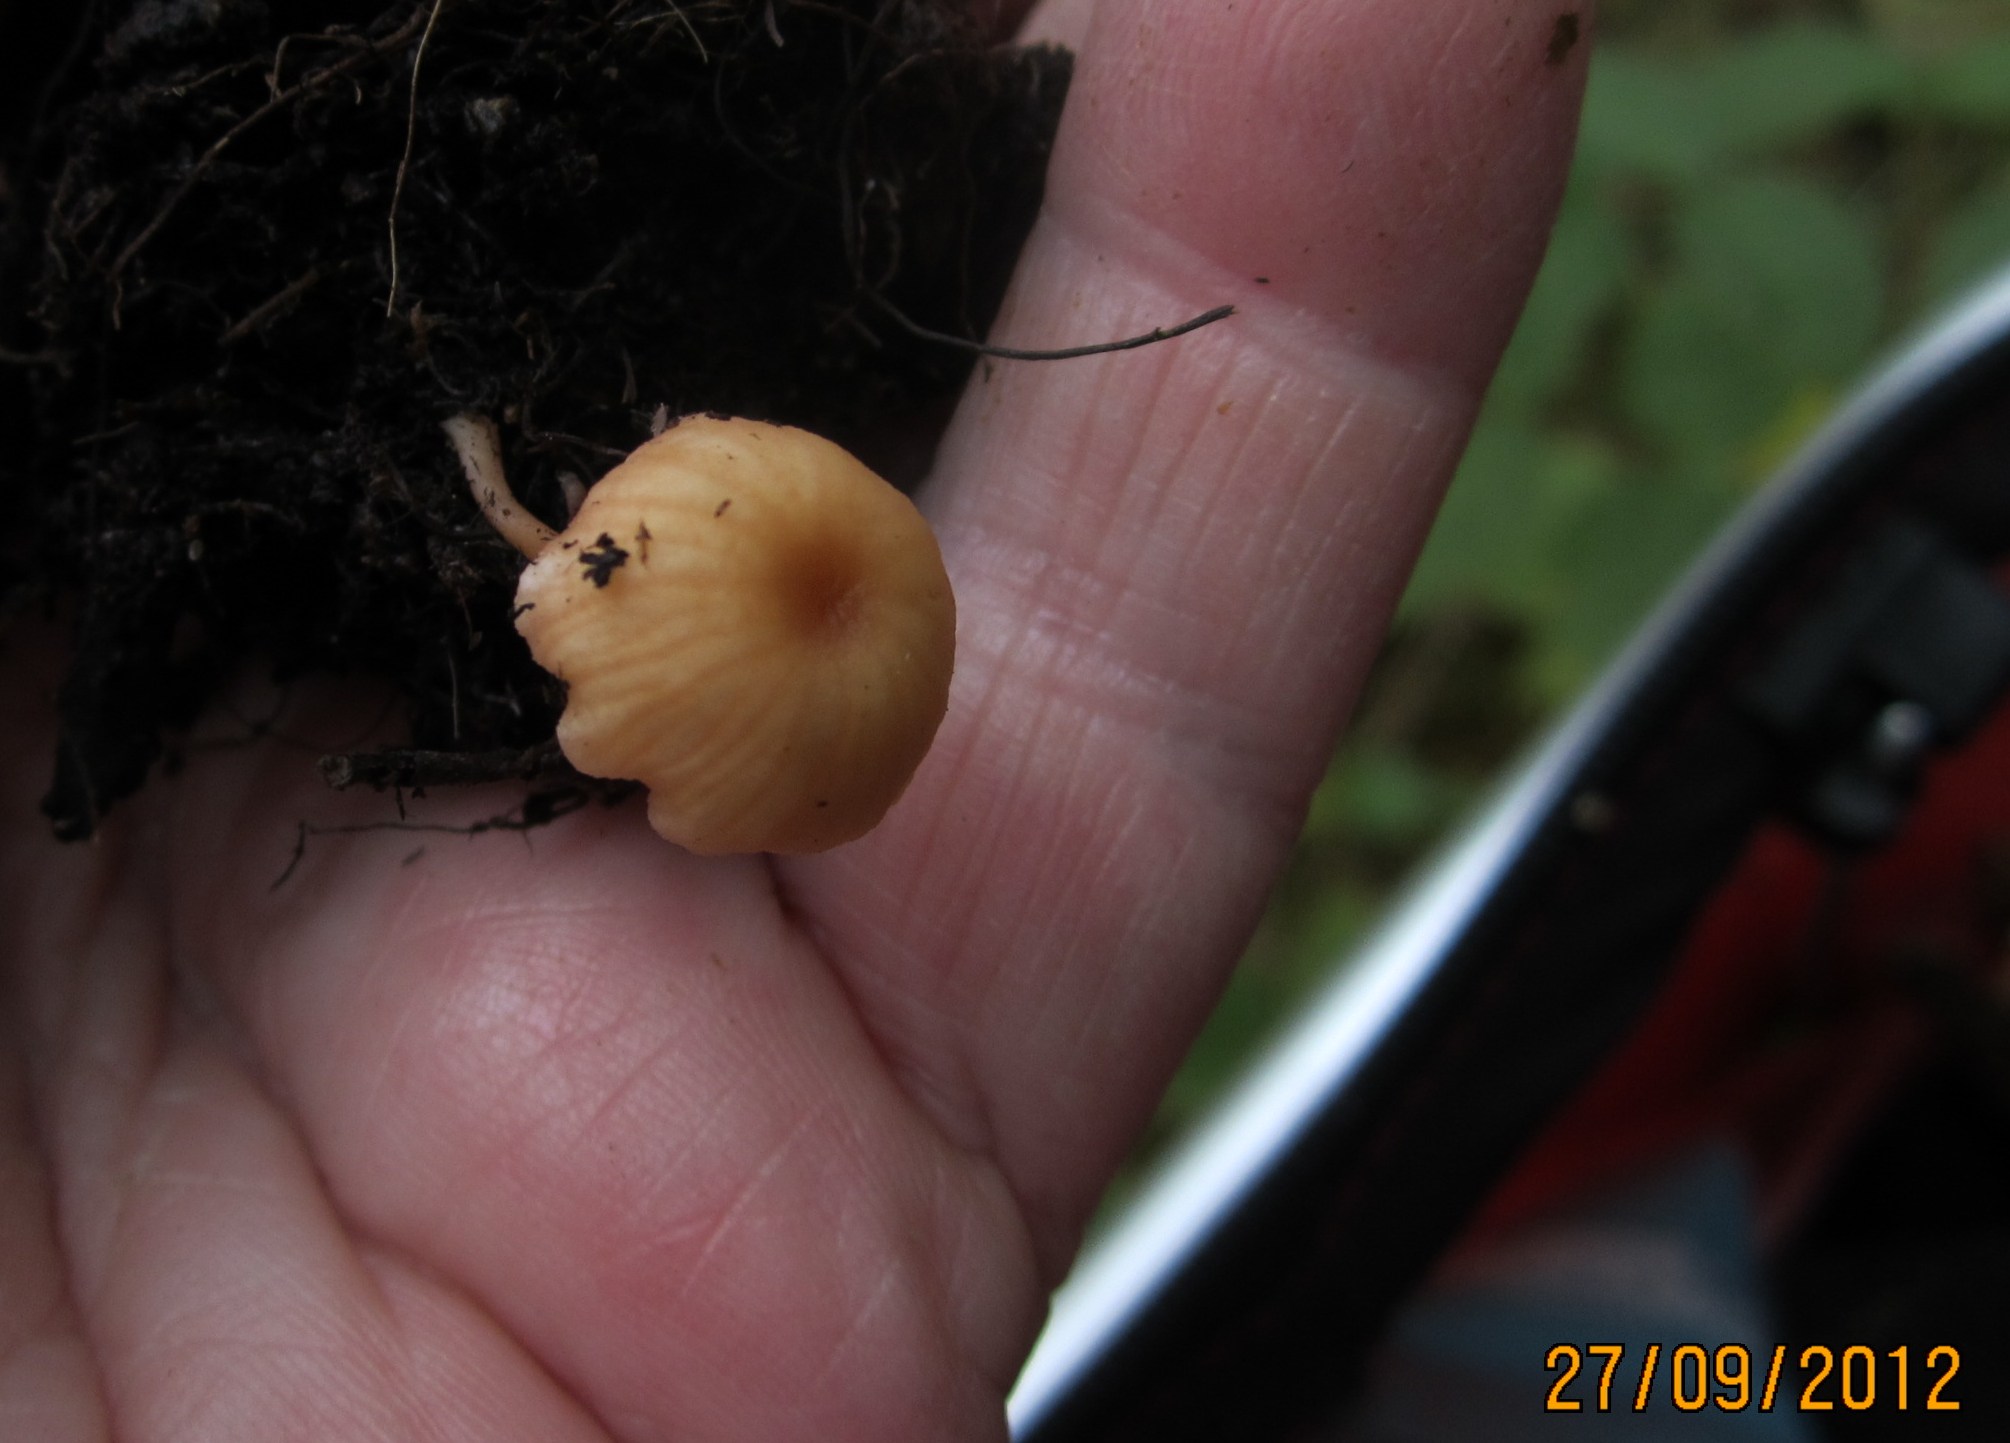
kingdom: Fungi
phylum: Basidiomycota
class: Agaricomycetes
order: Agaricales
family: Hydnangiaceae
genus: Laccaria
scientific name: Laccaria tortilis
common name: krybende ametysthat
